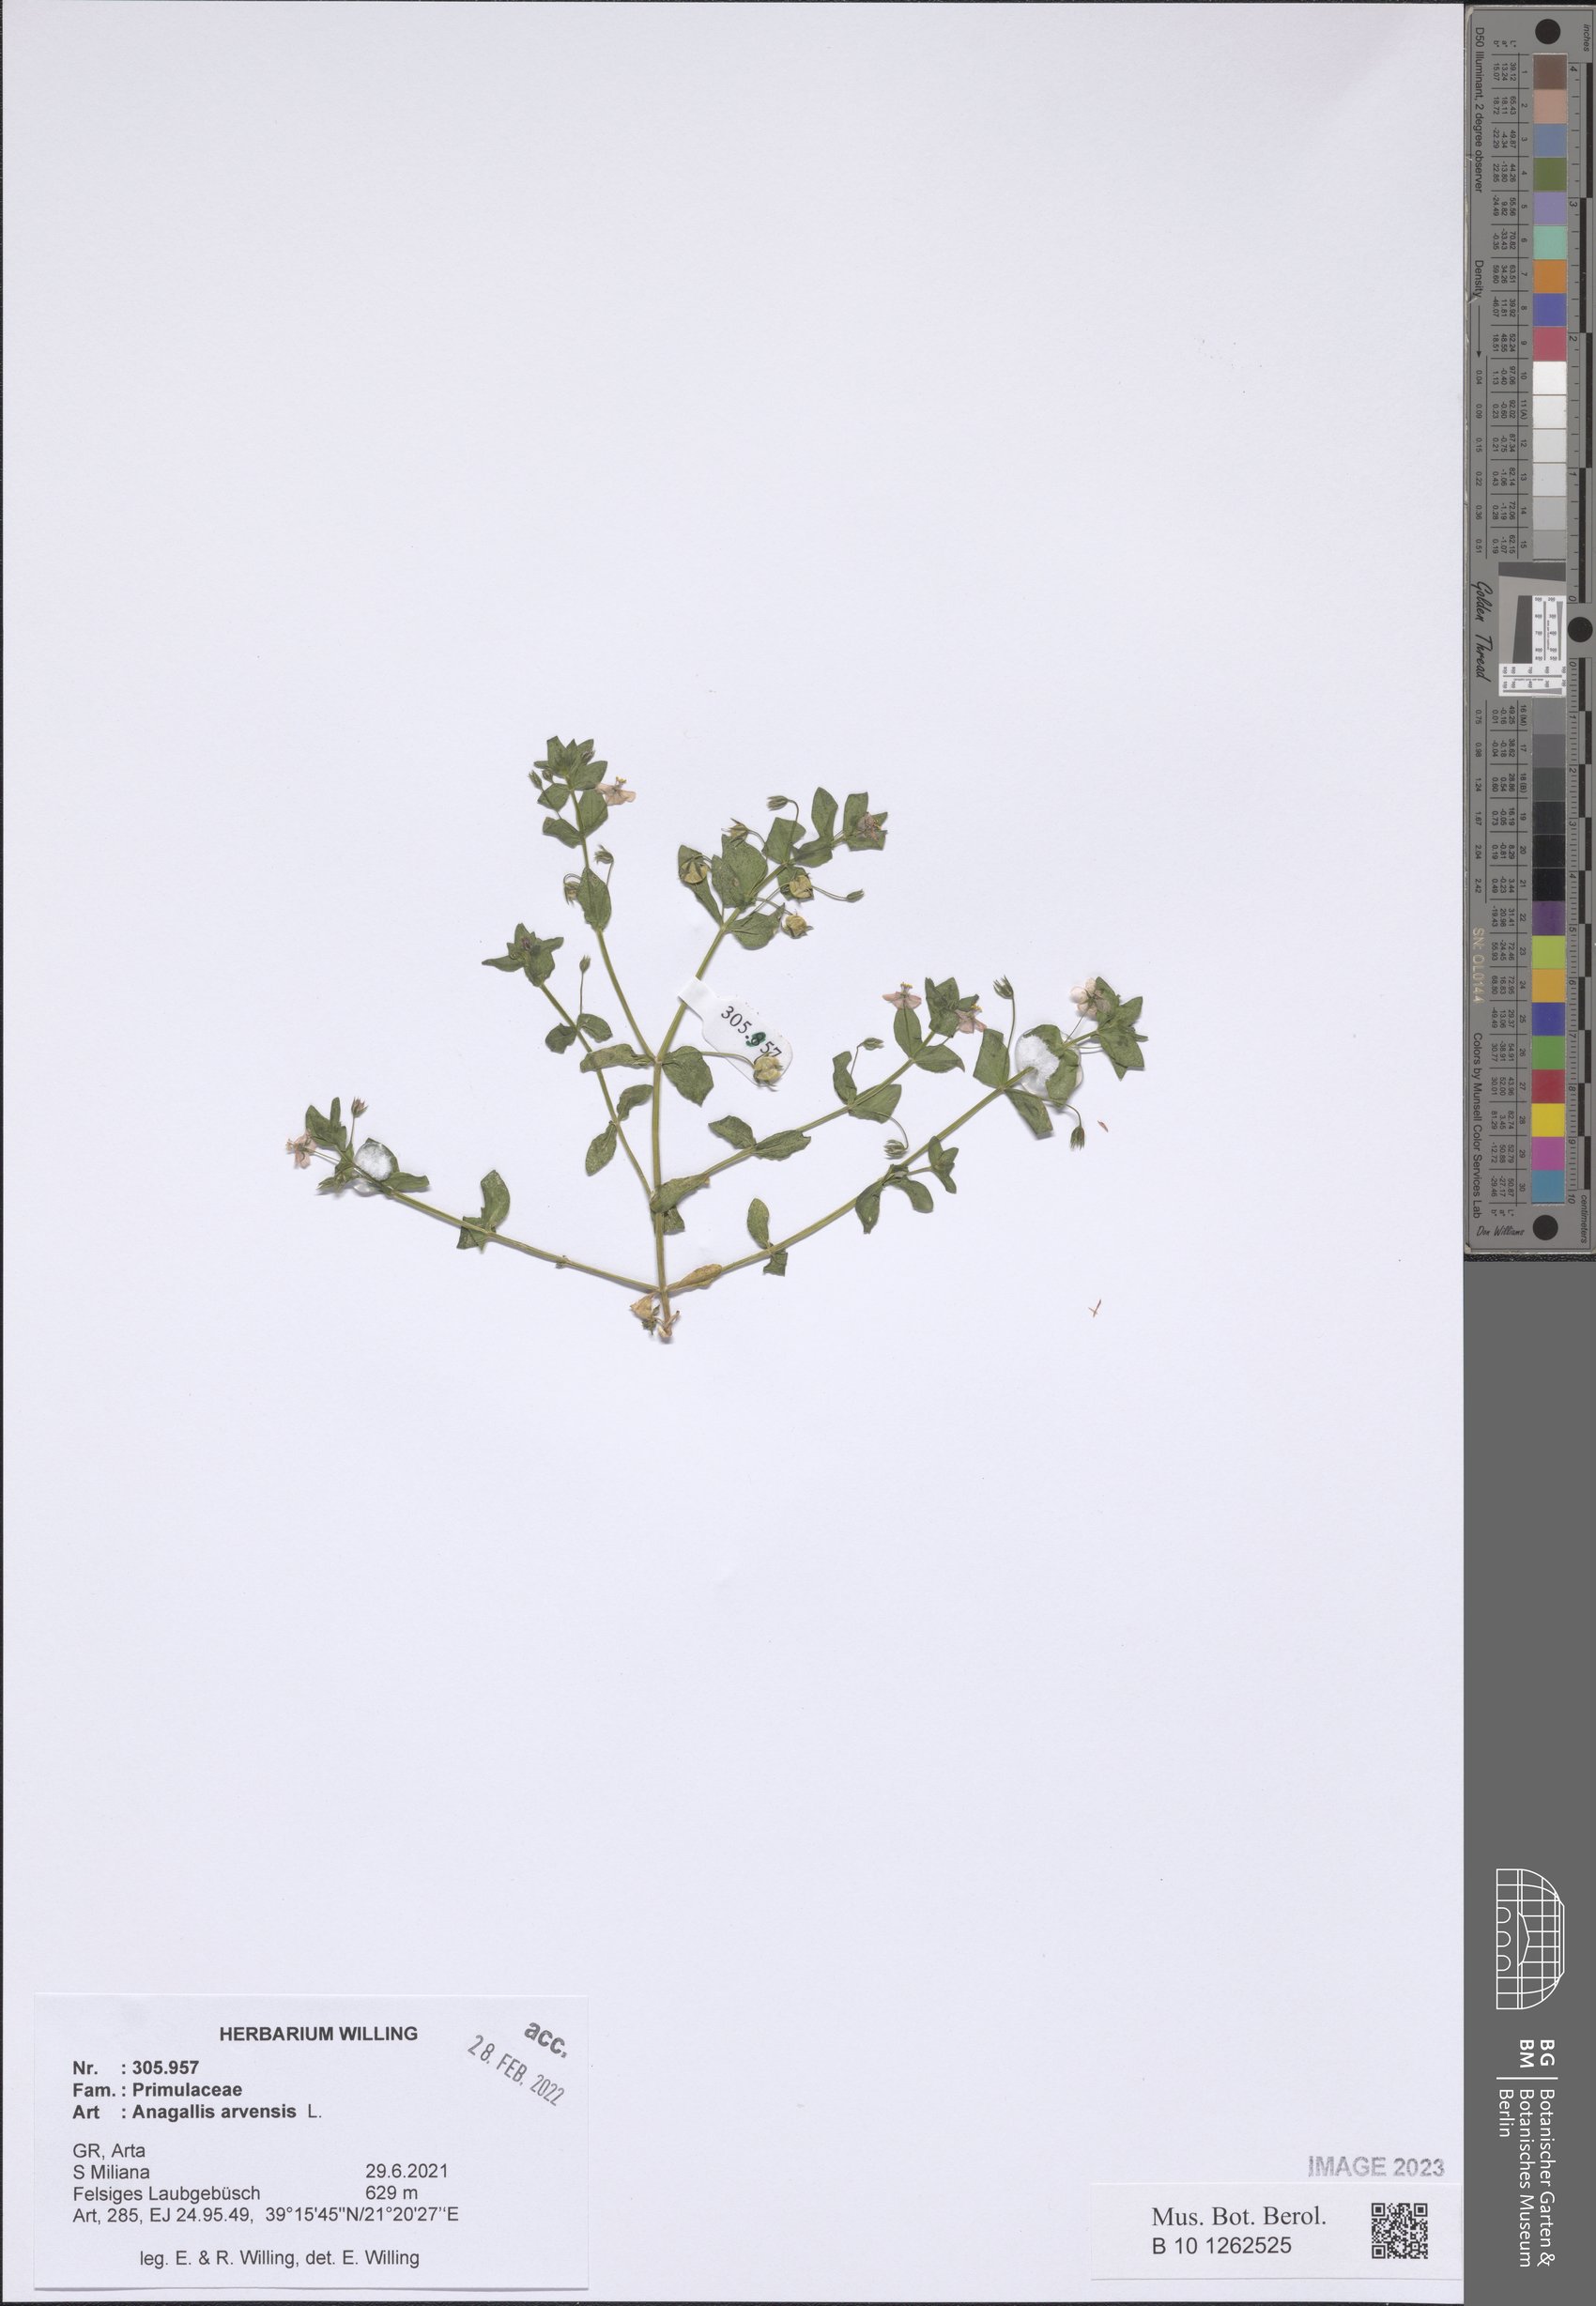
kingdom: Plantae
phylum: Tracheophyta
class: Magnoliopsida
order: Ericales
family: Primulaceae
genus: Lysimachia
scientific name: Lysimachia arvensis
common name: Scarlet pimpernel
